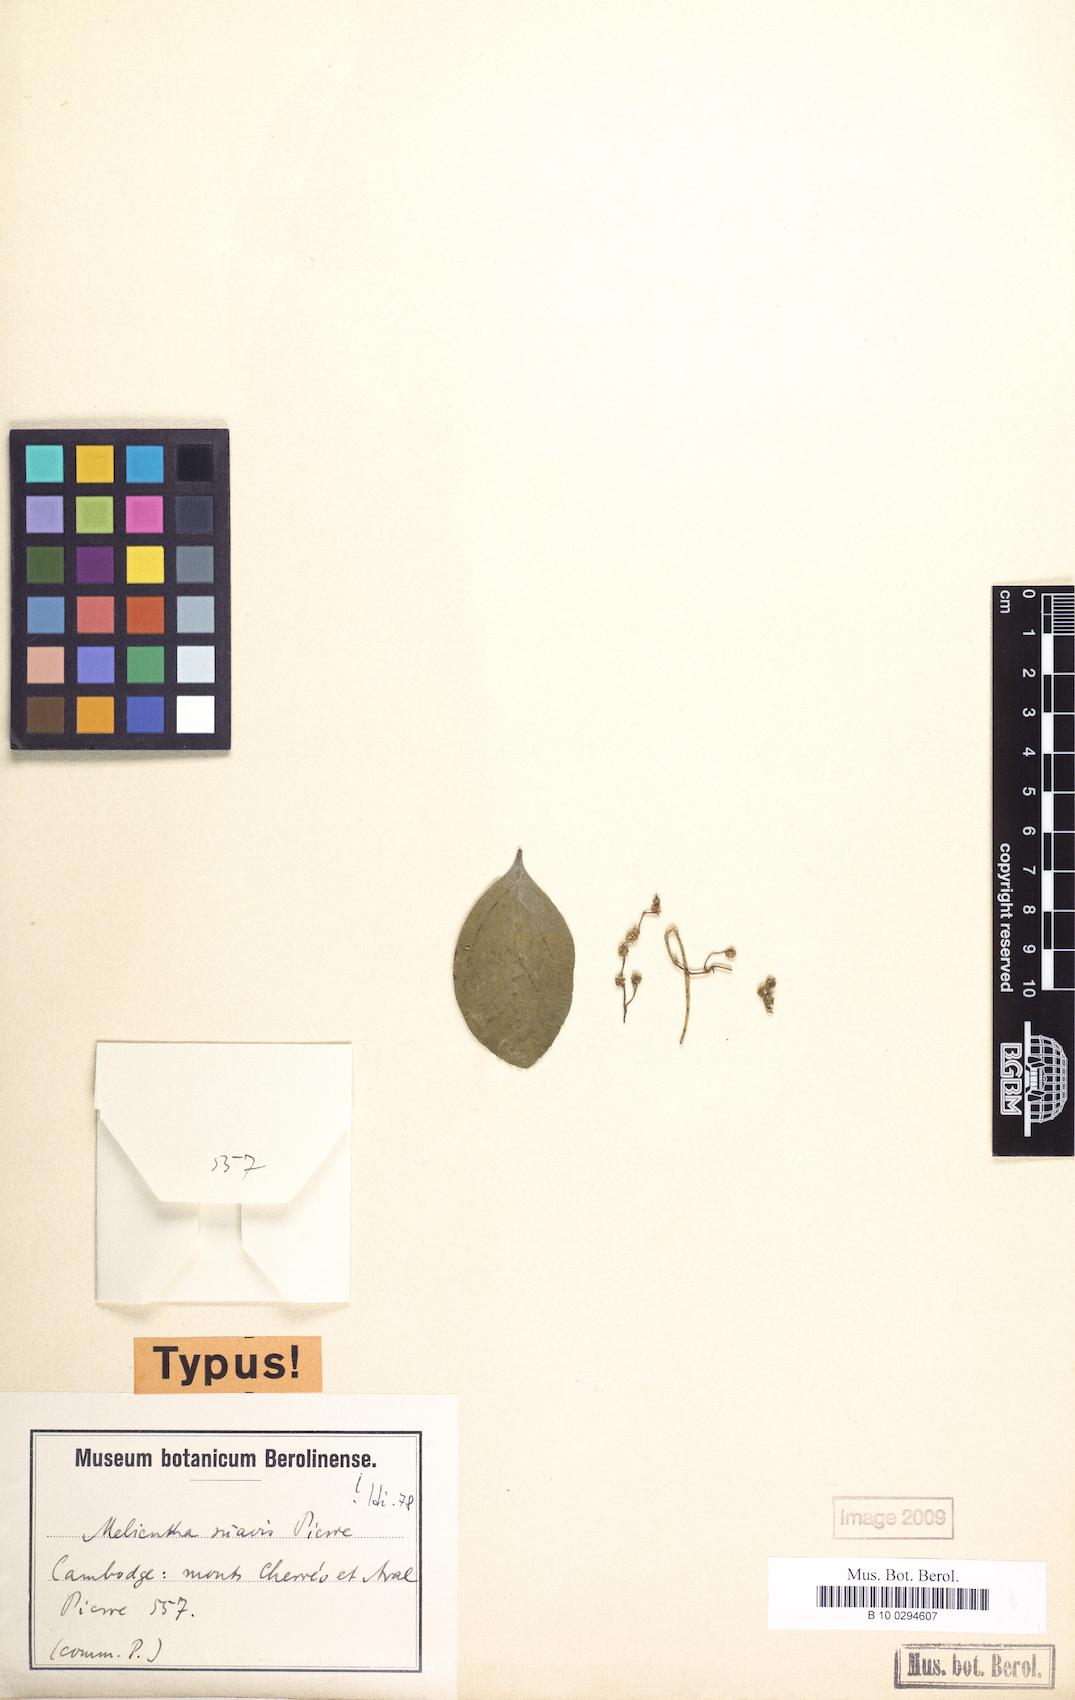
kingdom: Plantae
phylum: Tracheophyta
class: Magnoliopsida
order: Santalales
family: Opiliaceae
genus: Melientha
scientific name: Melientha suavis
